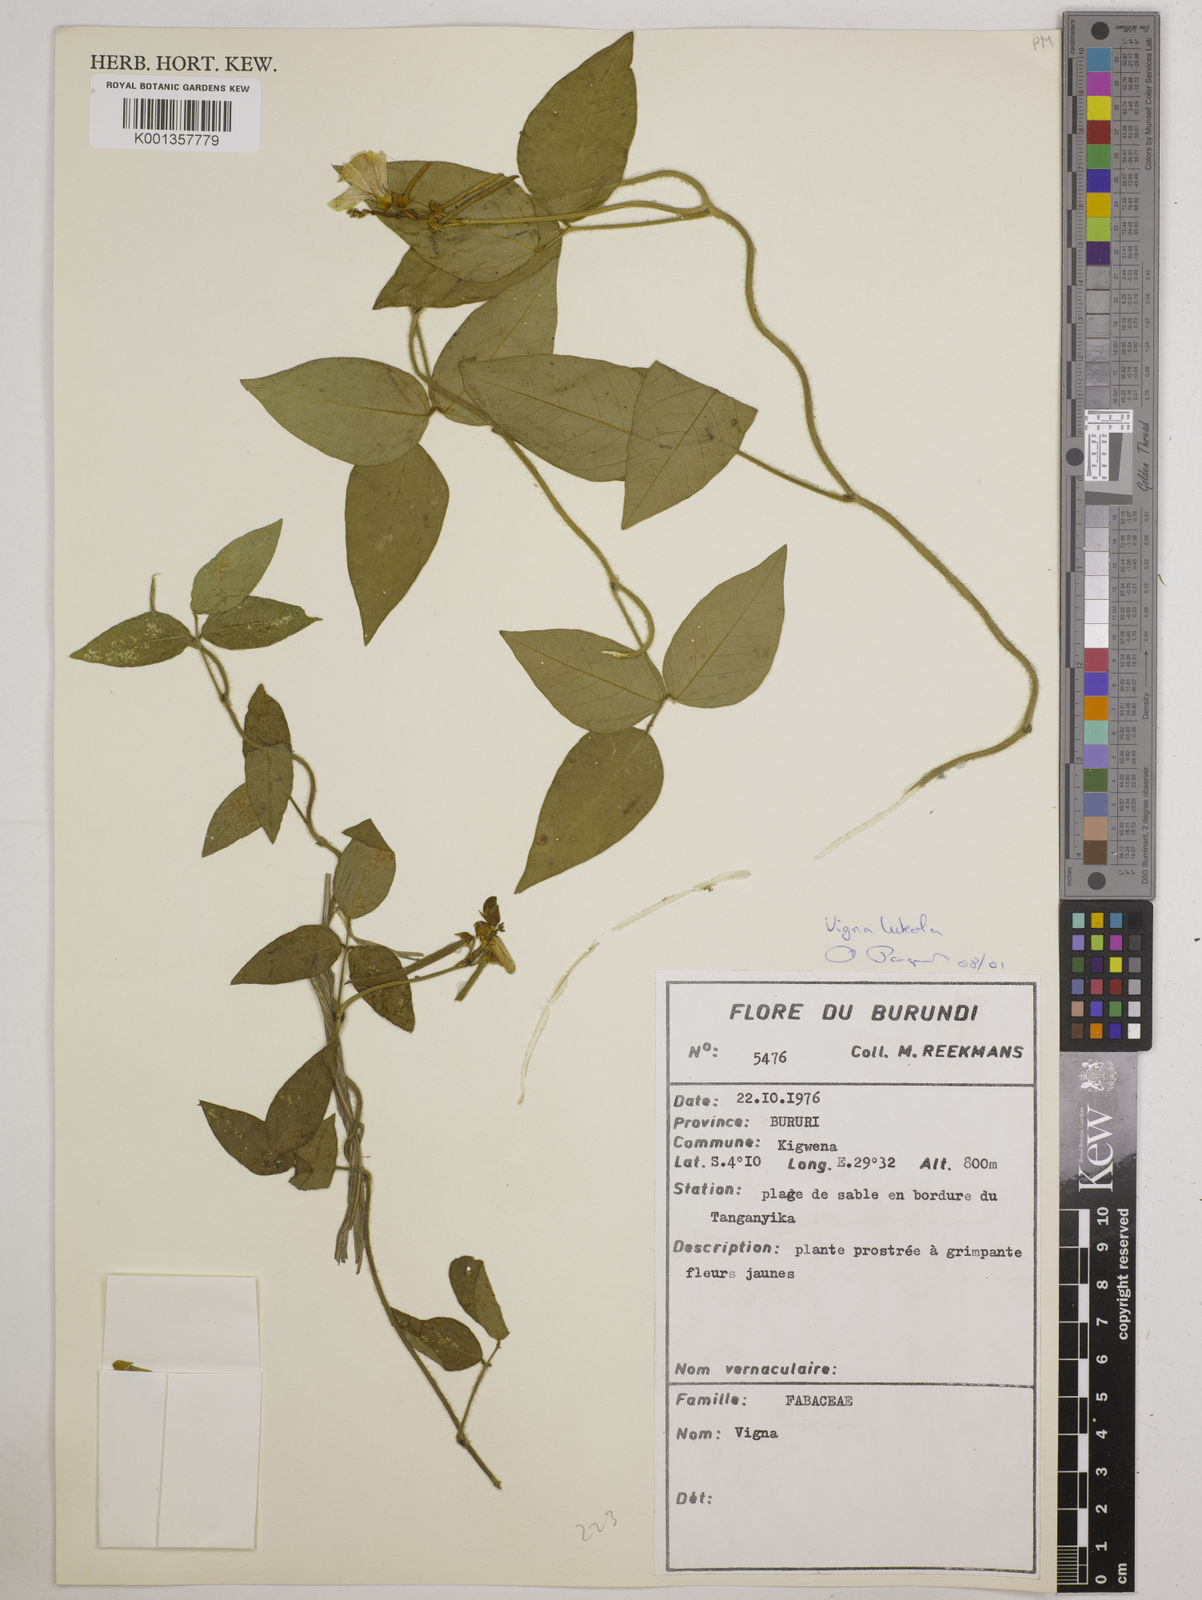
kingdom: Plantae
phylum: Tracheophyta
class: Magnoliopsida
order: Fabales
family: Fabaceae
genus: Vigna
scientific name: Vigna
